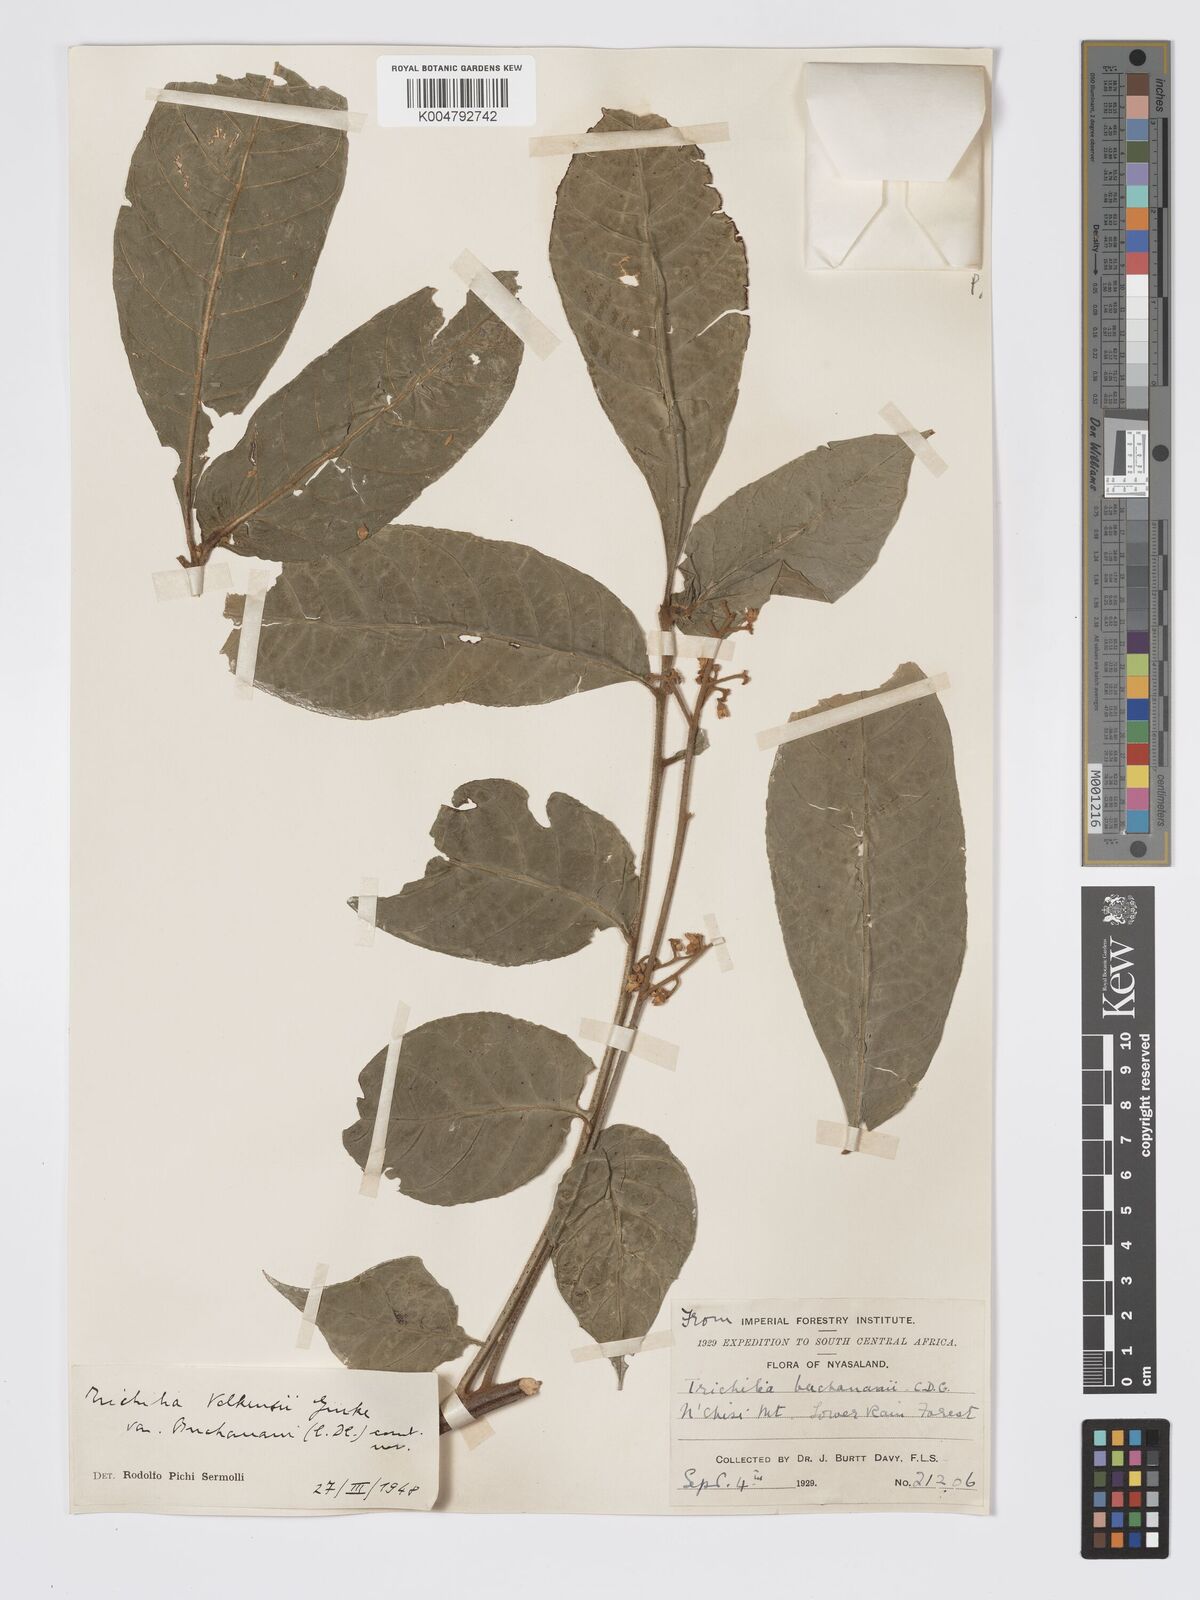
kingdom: Plantae
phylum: Tracheophyta
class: Magnoliopsida
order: Sapindales
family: Meliaceae
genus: Lepidotrichilia
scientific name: Lepidotrichilia volkensii
